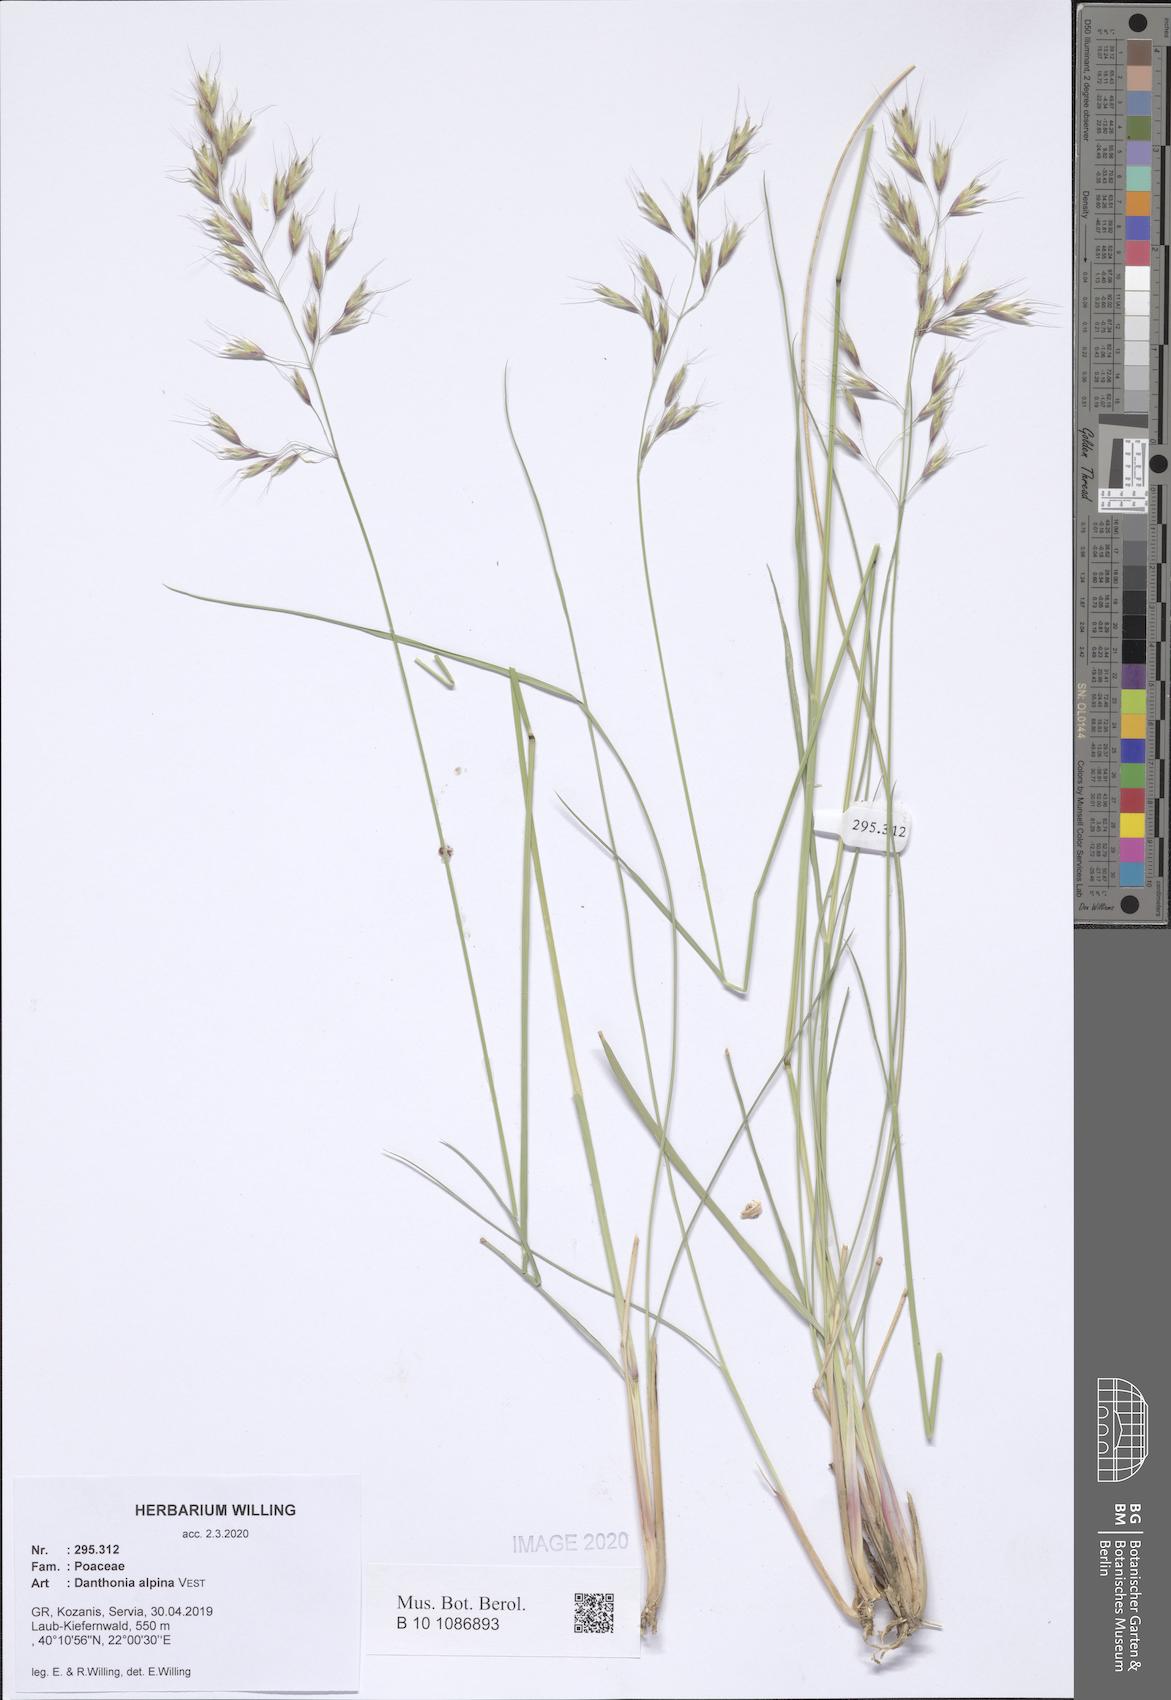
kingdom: Plantae
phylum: Tracheophyta
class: Liliopsida
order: Poales
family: Poaceae
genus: Danthonia
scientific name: Danthonia alpina
